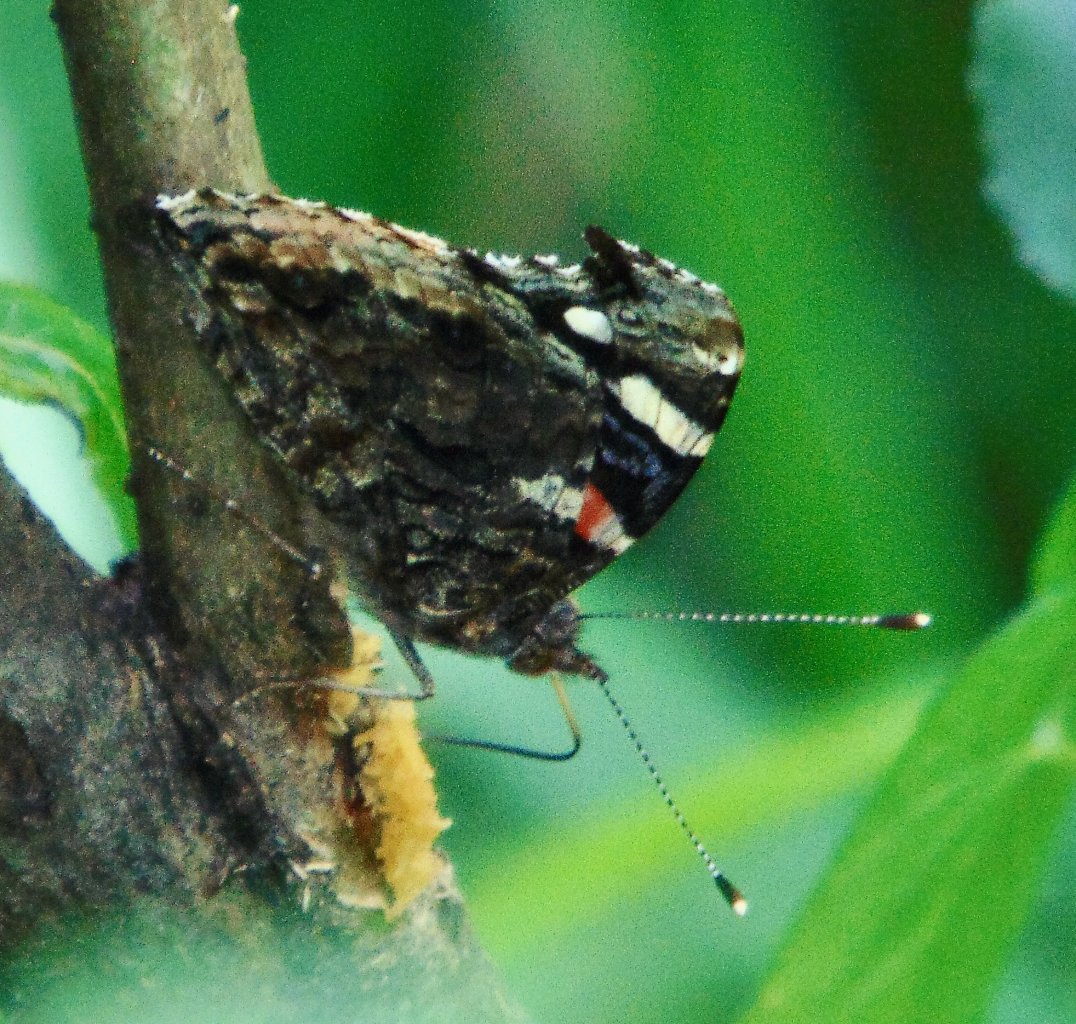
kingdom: Animalia
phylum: Arthropoda
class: Insecta
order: Lepidoptera
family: Nymphalidae
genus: Vanessa
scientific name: Vanessa atalanta
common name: Red Admiral
